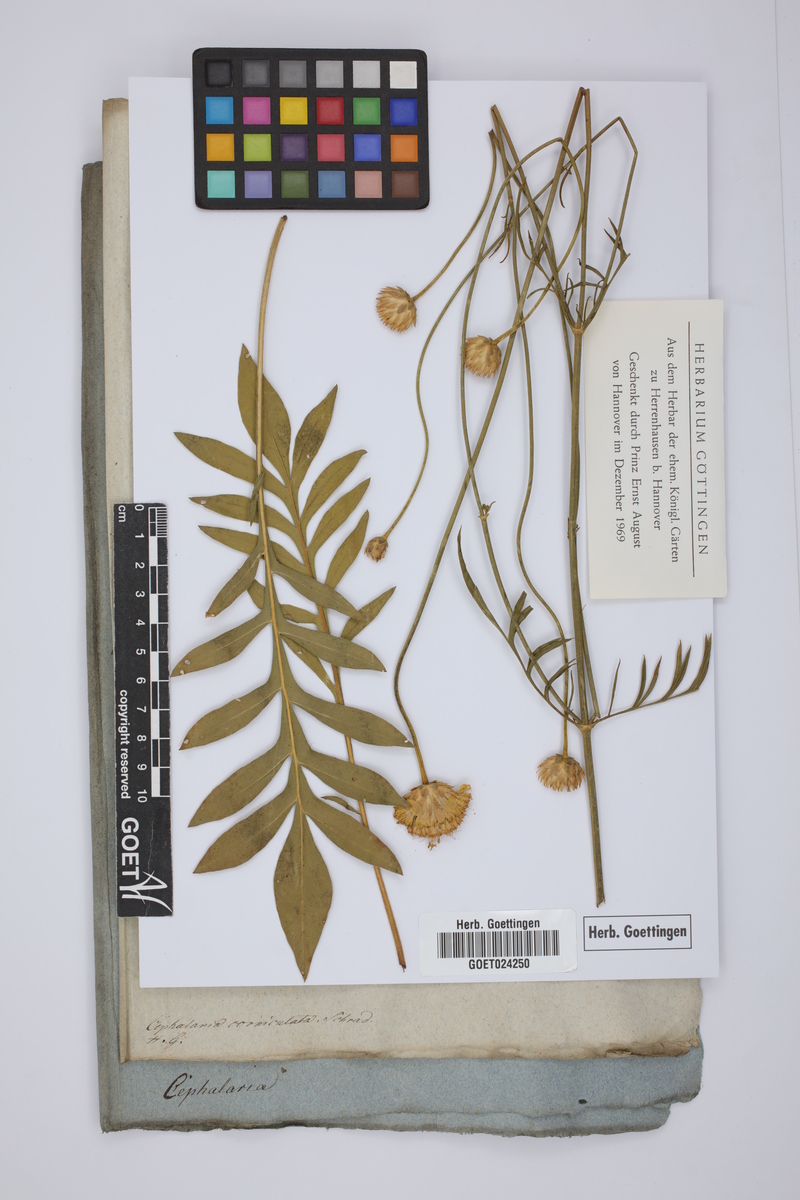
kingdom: Plantae
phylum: Tracheophyta
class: Magnoliopsida
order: Dipsacales
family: Caprifoliaceae
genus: Cephalaria
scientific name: Cephalaria uralensis
